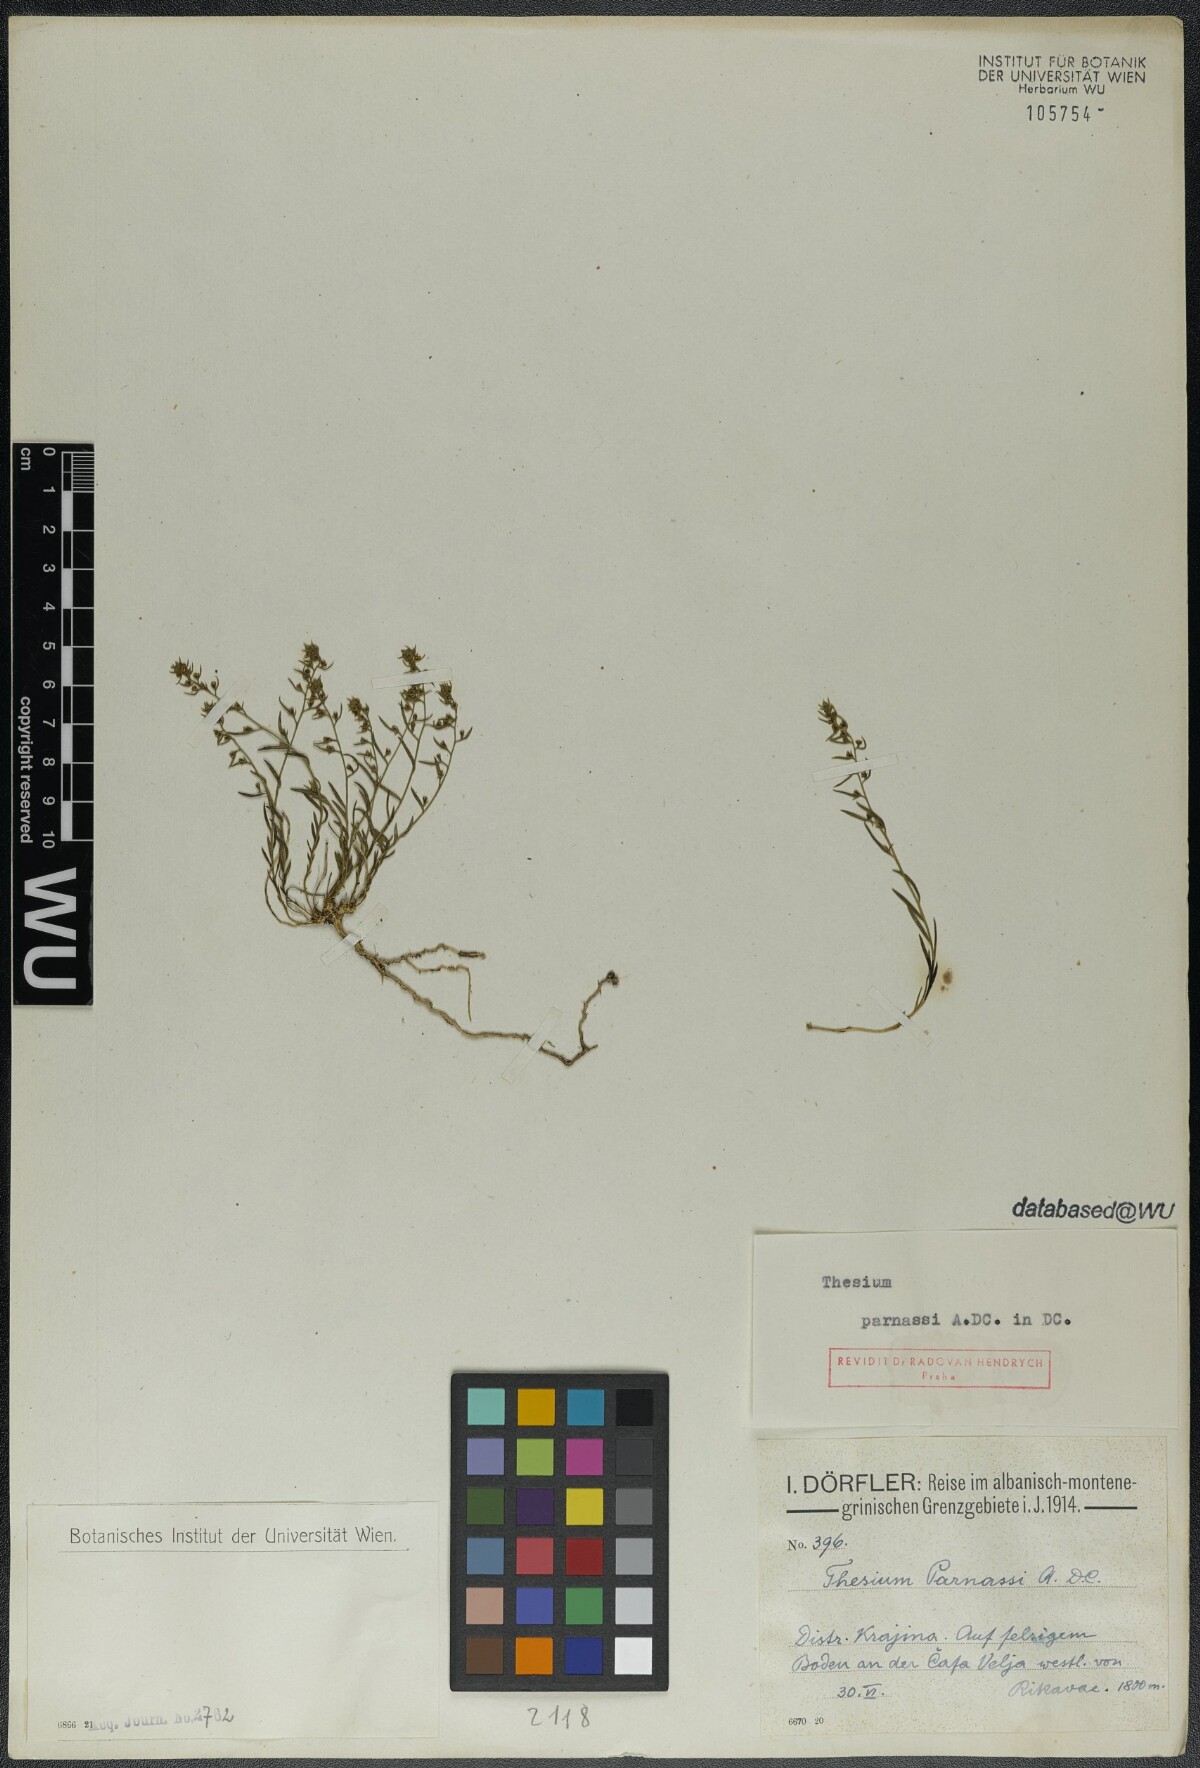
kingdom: Plantae
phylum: Tracheophyta
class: Magnoliopsida
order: Santalales
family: Thesiaceae
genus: Thesium
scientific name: Thesium parnassi
